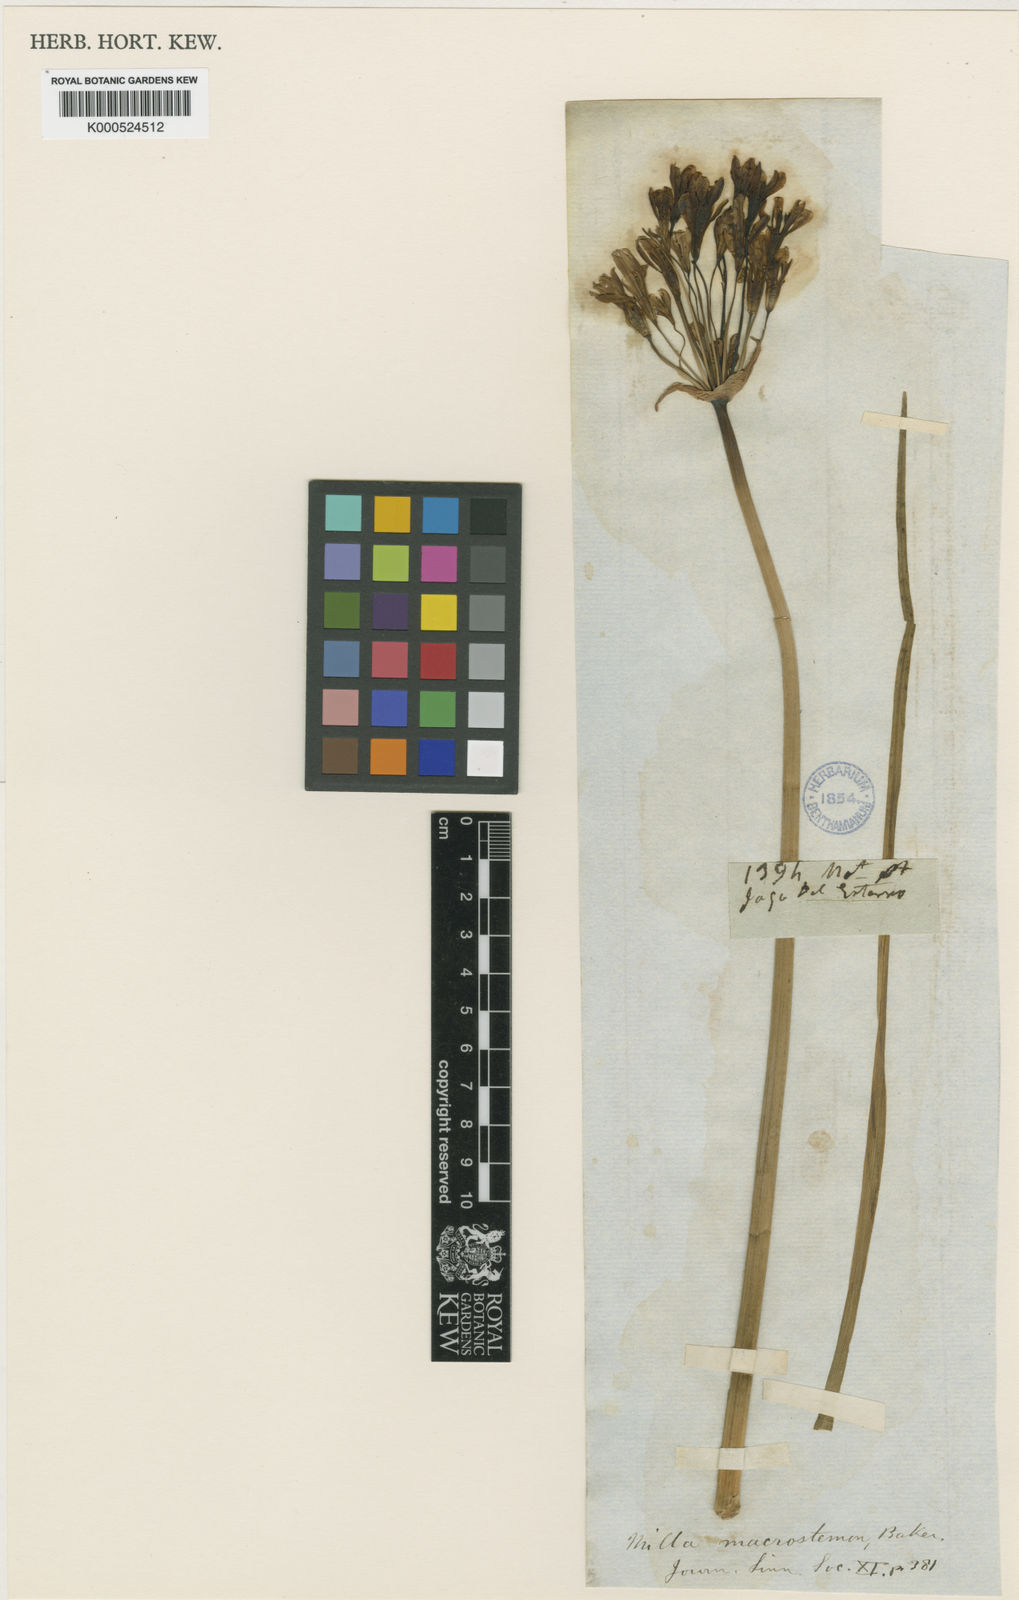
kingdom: Plantae
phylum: Tracheophyta
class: Liliopsida
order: Asparagales
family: Amaryllidaceae
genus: Nothoscordum
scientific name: Nothoscordum gracile
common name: Slender false garlic
